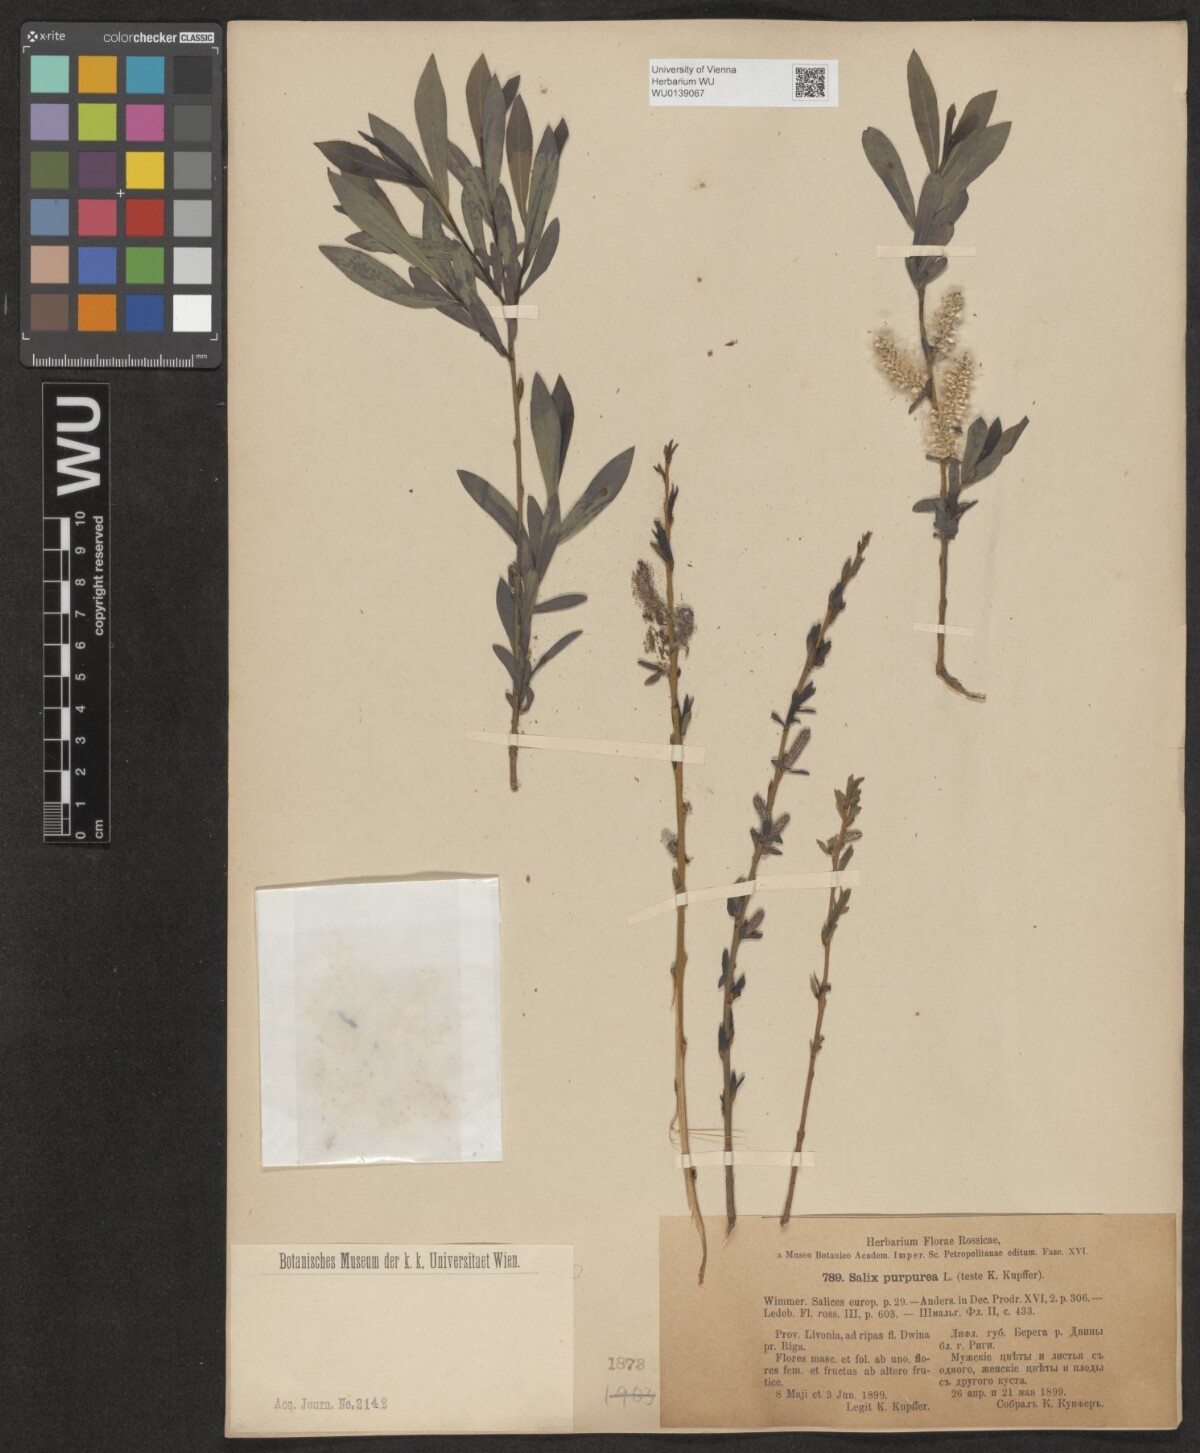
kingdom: Plantae
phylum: Tracheophyta
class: Magnoliopsida
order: Malpighiales
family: Salicaceae
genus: Salix
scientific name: Salix purpurea
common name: Purple willow
